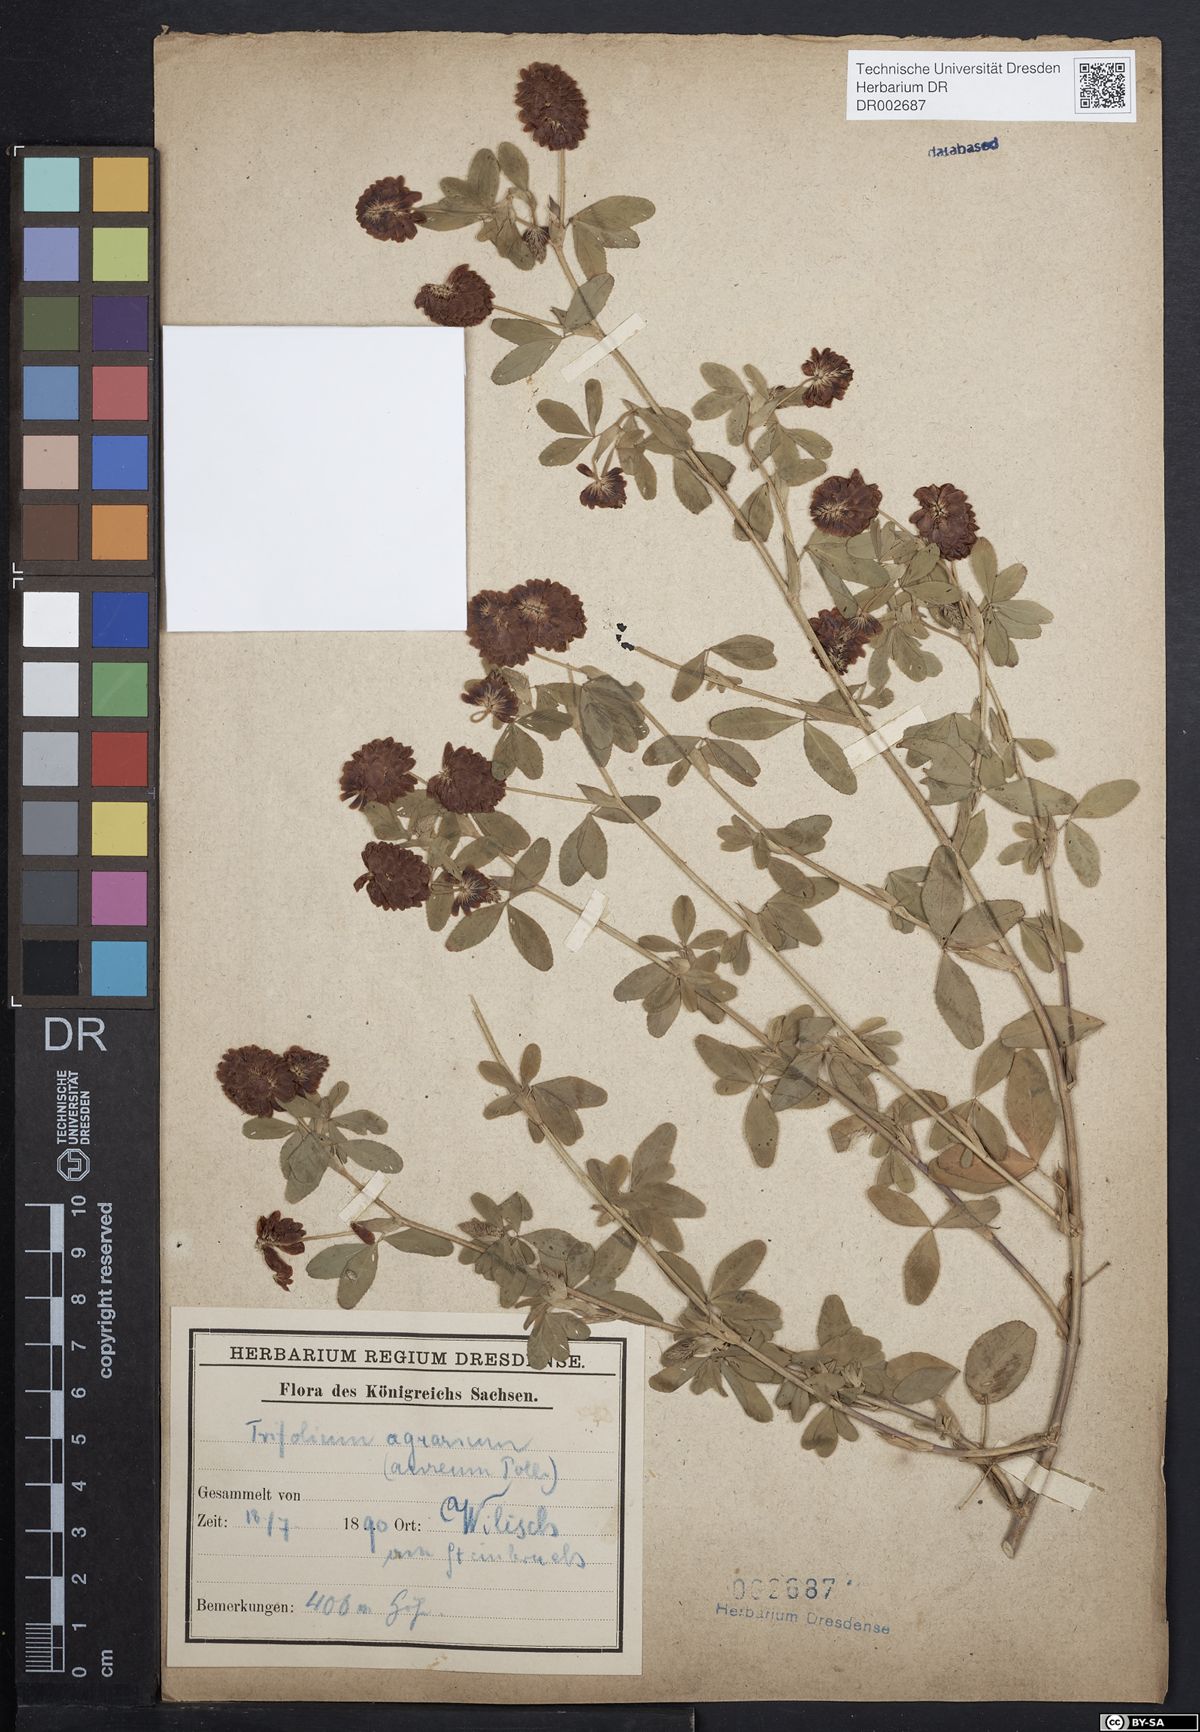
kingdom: Plantae
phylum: Tracheophyta
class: Magnoliopsida
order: Fabales
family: Fabaceae
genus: Trifolium
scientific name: Trifolium aureum
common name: Golden clover
